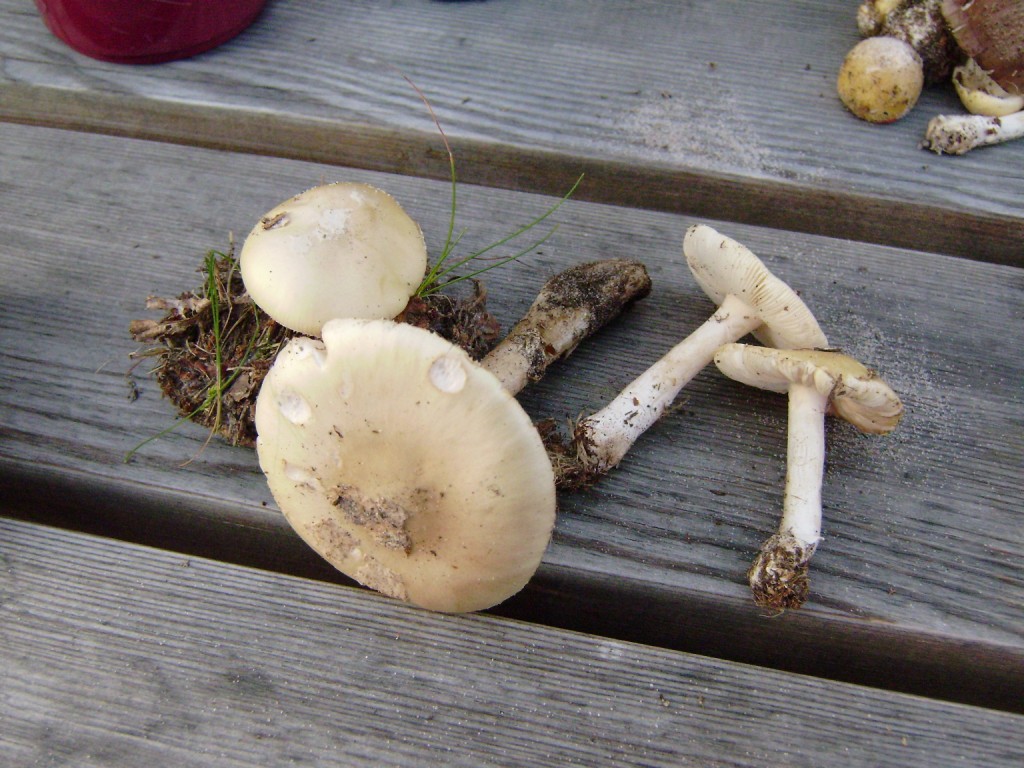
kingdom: Fungi
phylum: Basidiomycota
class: Agaricomycetes
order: Agaricales
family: Amanitaceae
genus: Amanita
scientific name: Amanita gemmata
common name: okkergul fluesvamp
